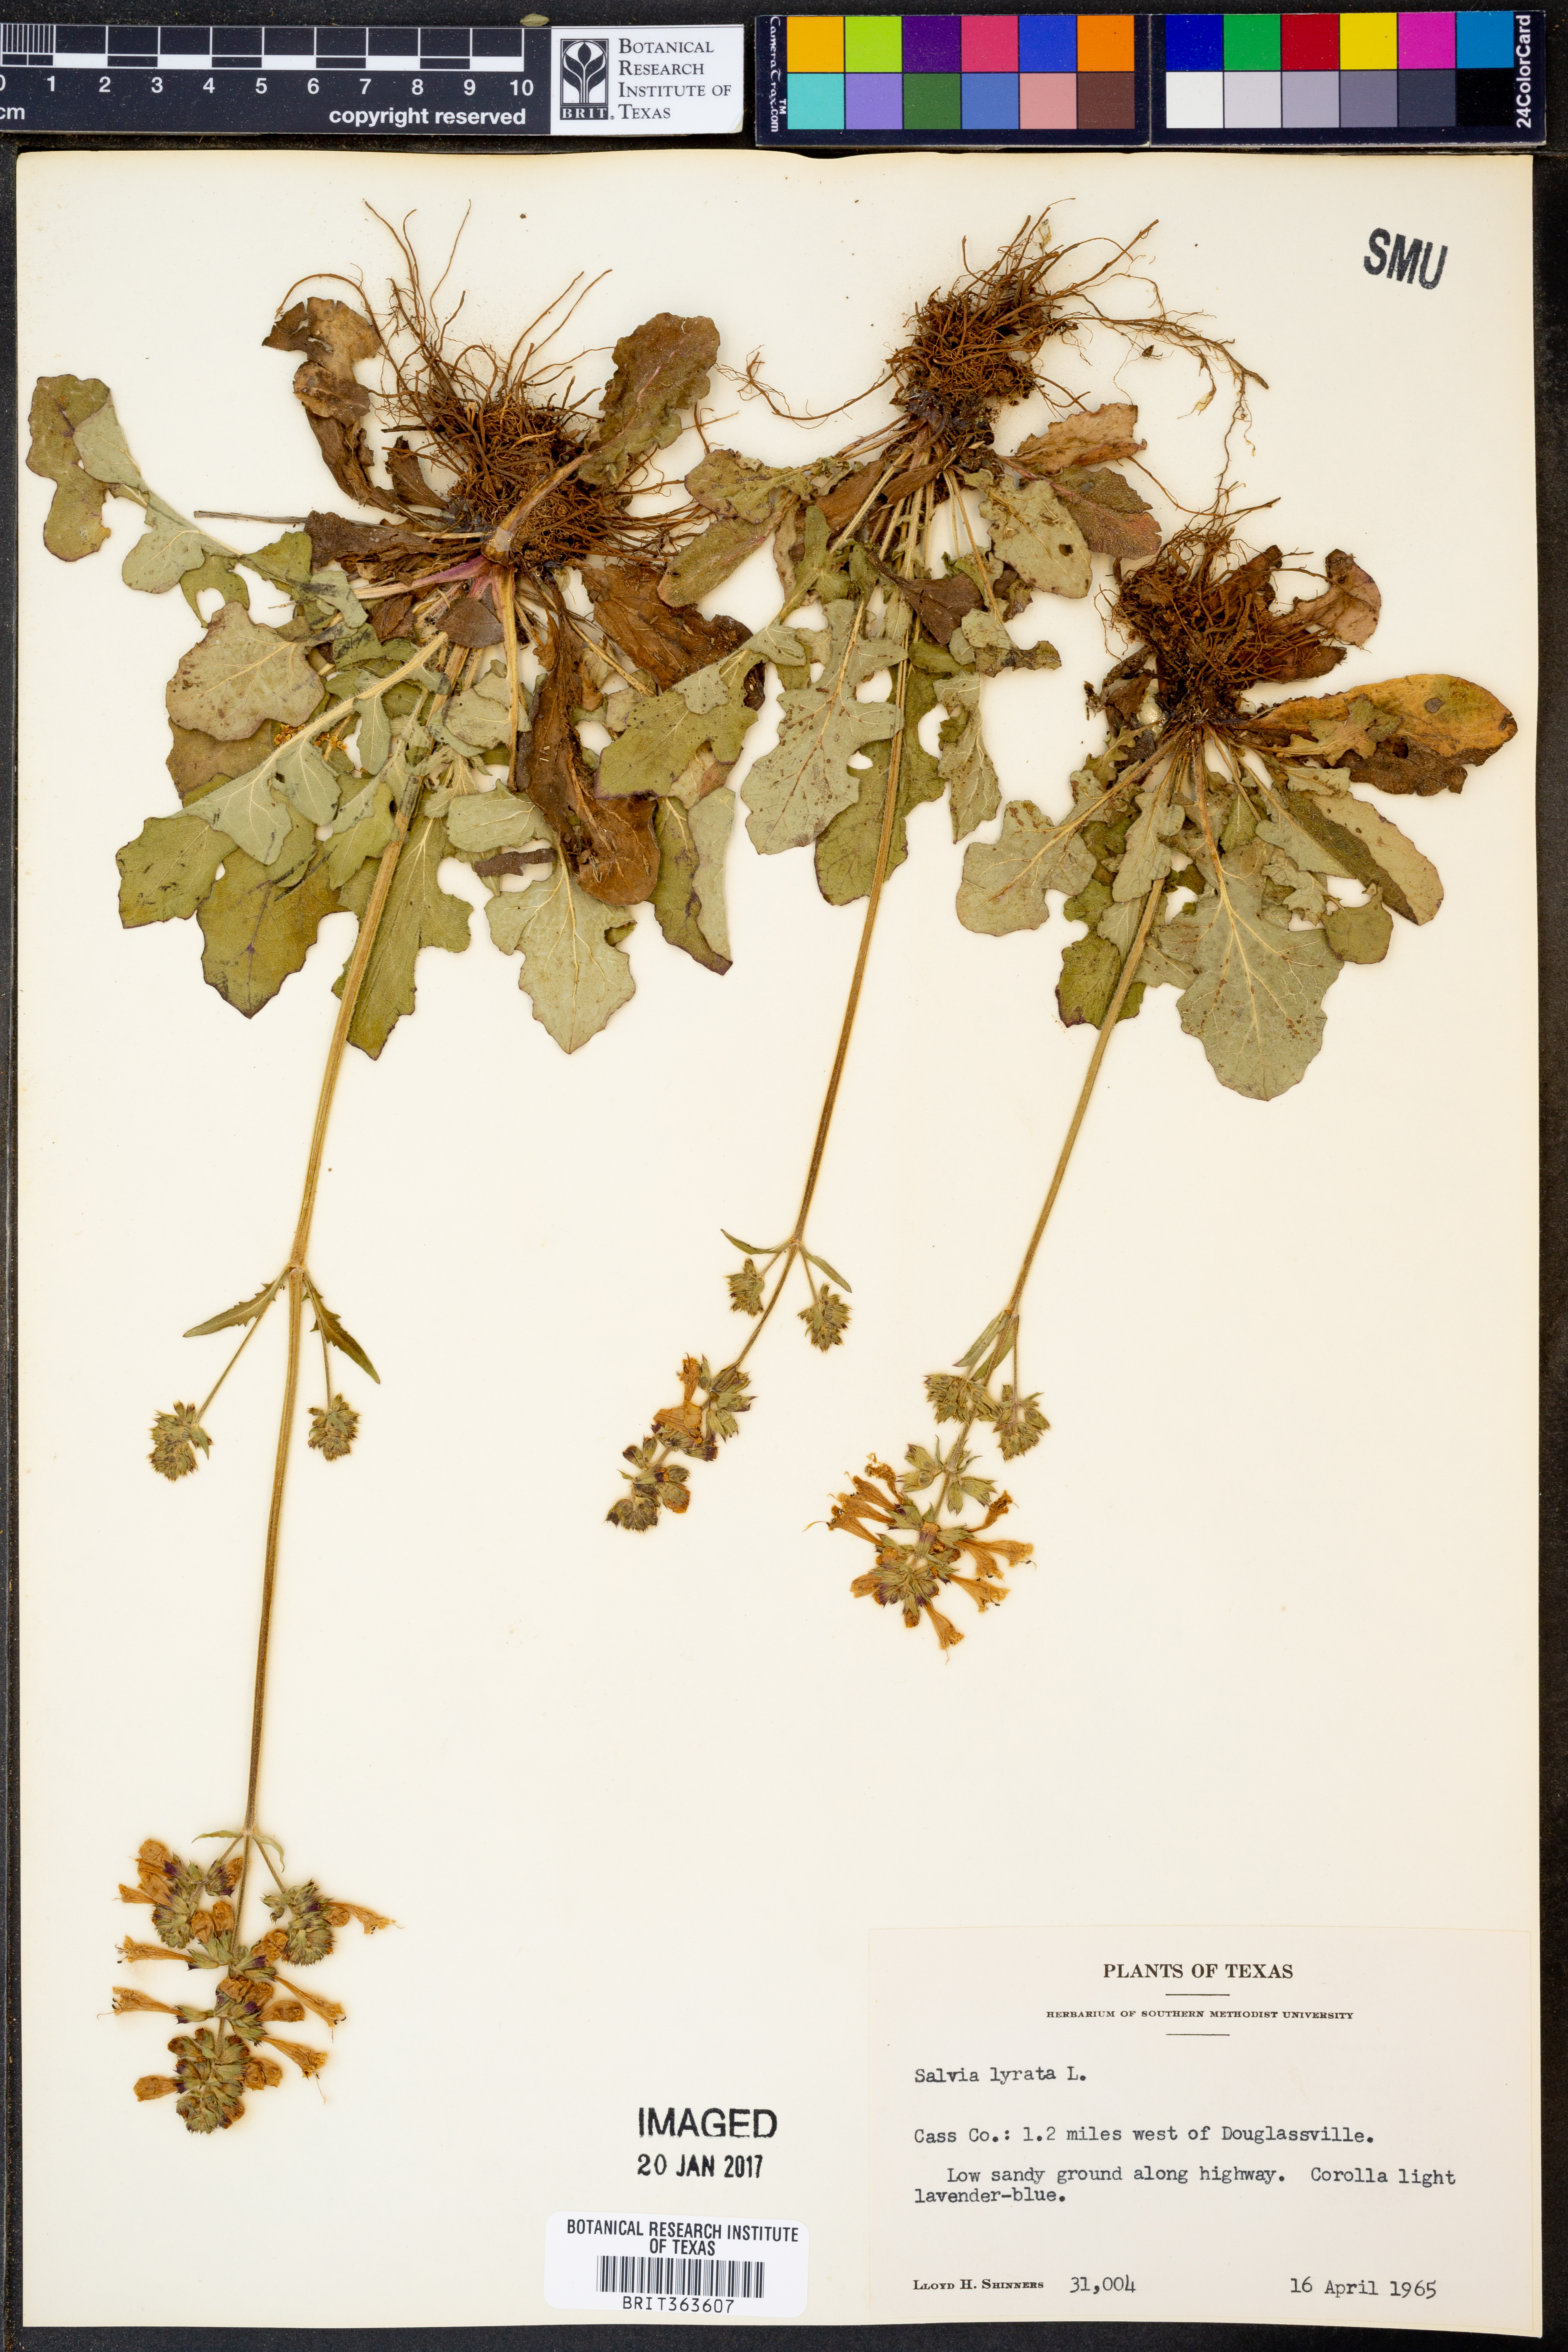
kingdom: Plantae
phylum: Tracheophyta
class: Magnoliopsida
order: Lamiales
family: Lamiaceae
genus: Salvia
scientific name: Salvia lyrata
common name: Cancerweed
